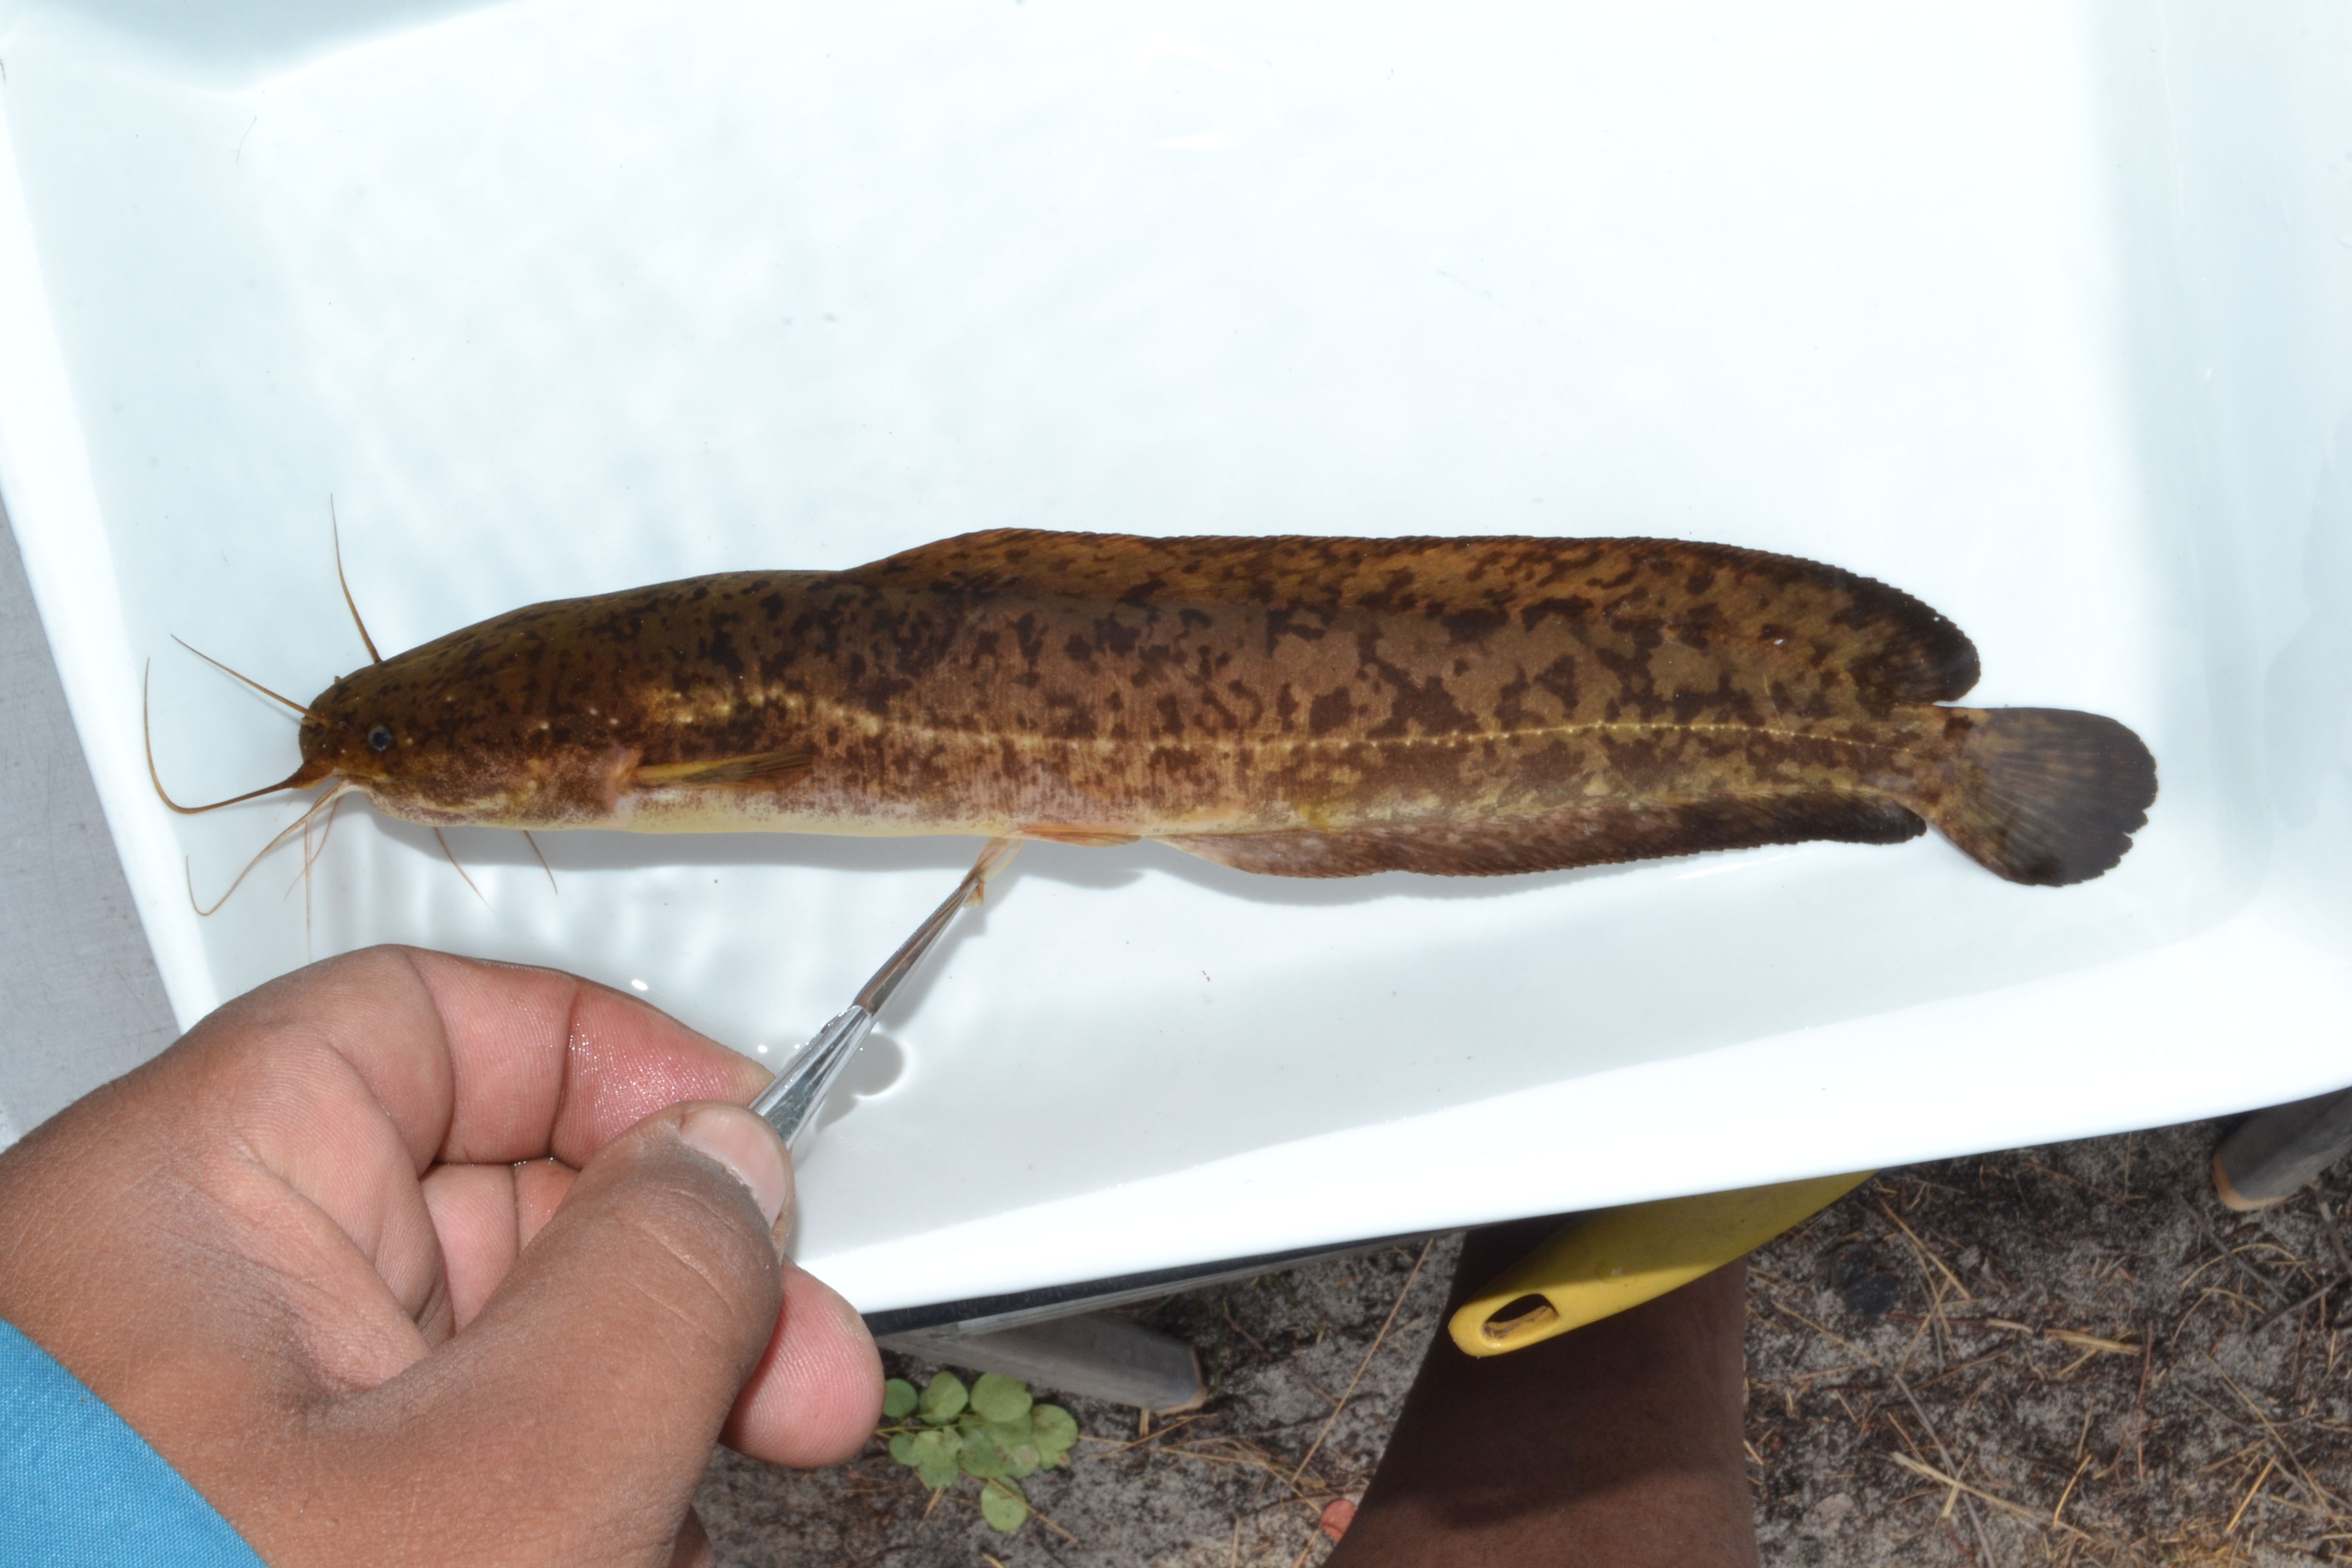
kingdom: Animalia
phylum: Chordata
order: Siluriformes
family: Clariidae
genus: Clarias
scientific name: Clarias stappersii
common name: Blotched catfish
